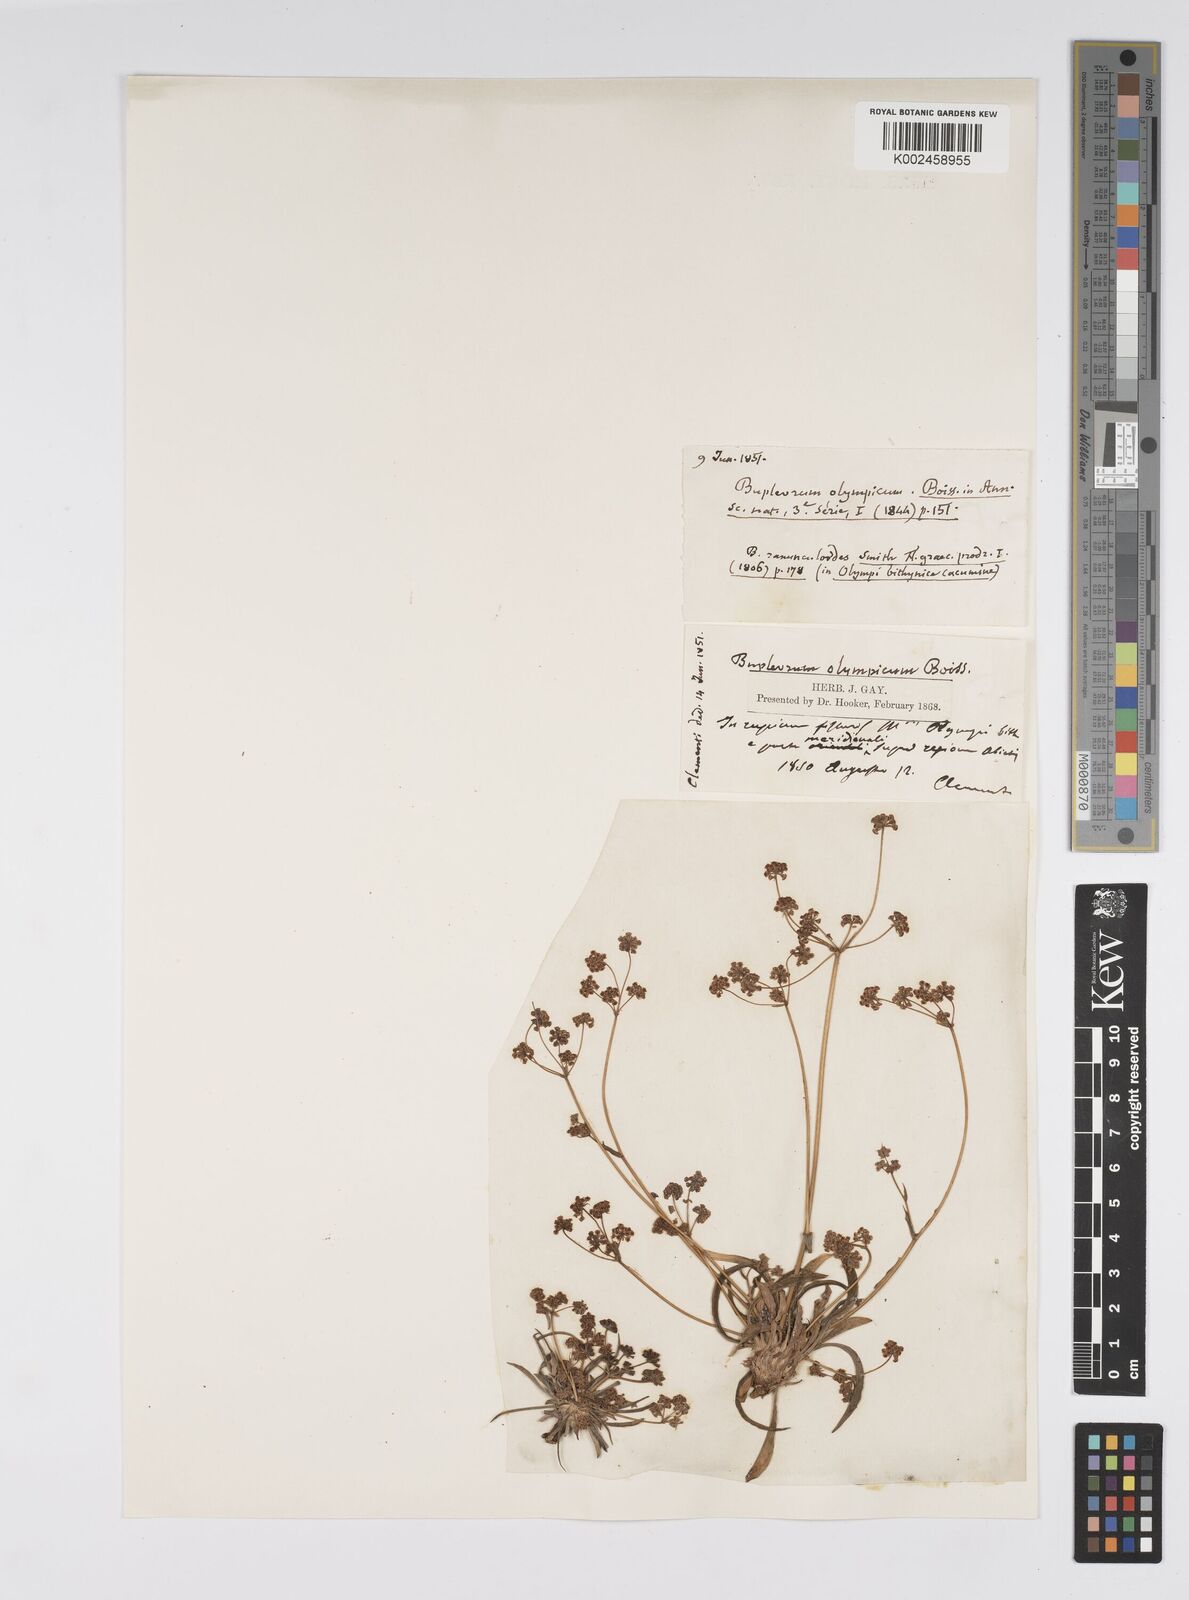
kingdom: Plantae
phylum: Tracheophyta
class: Magnoliopsida
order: Apiales
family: Apiaceae
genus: Bupleurum
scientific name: Bupleurum falcatum
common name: Sickle-leaved hare's-ear
